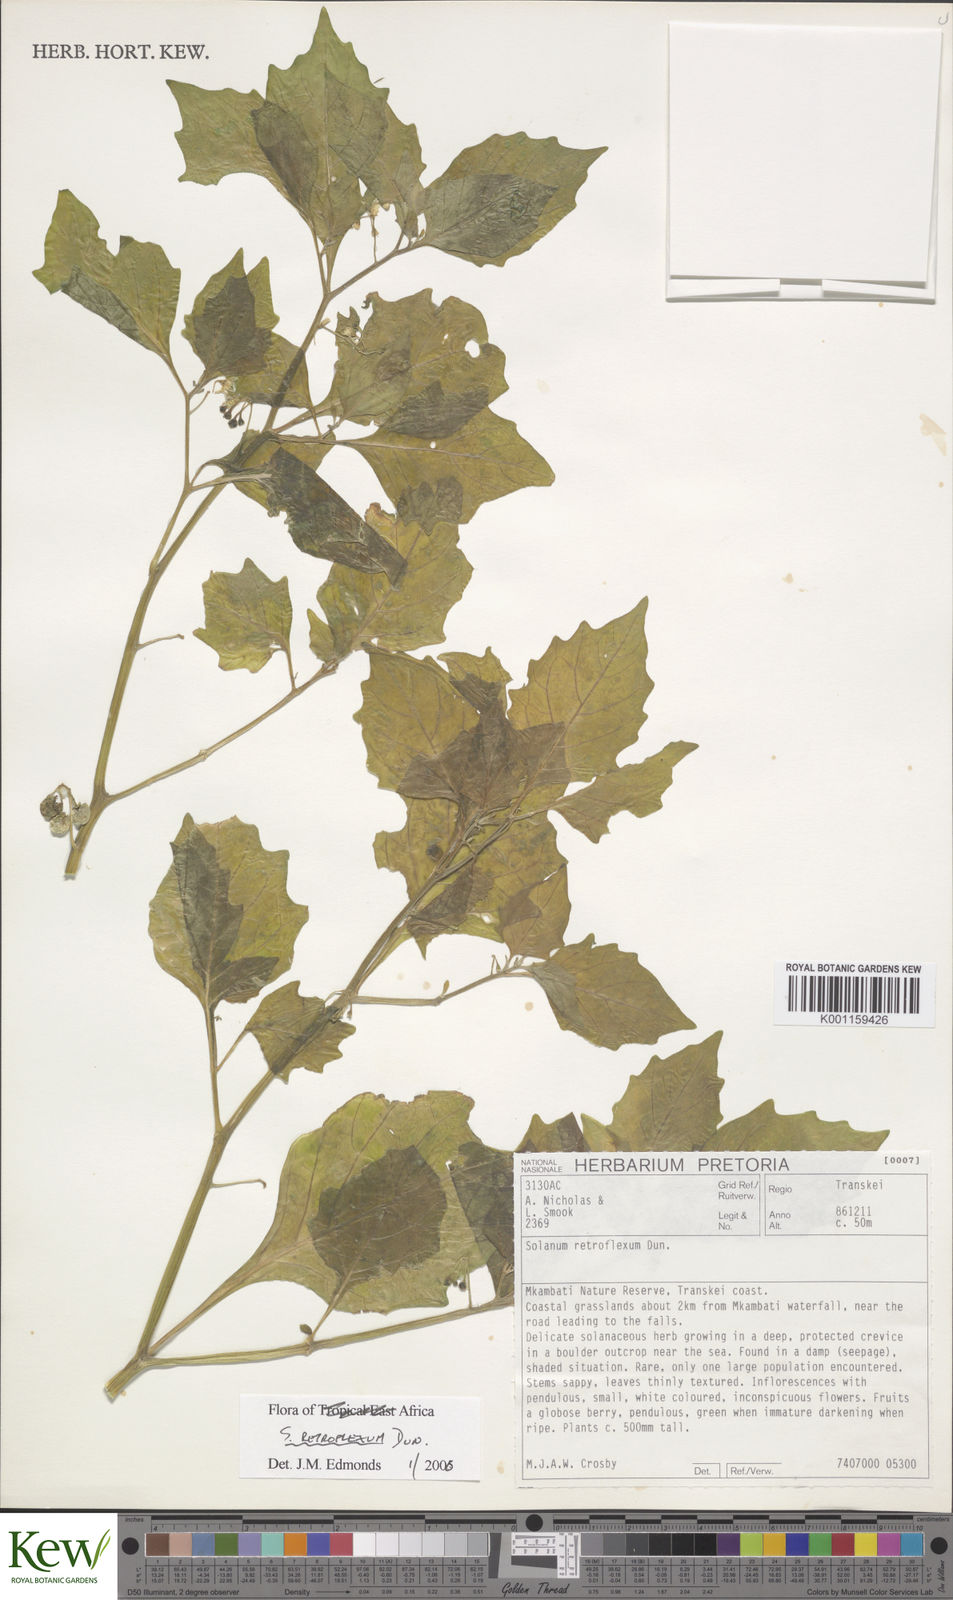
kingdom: Plantae
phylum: Tracheophyta
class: Magnoliopsida
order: Solanales
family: Solanaceae
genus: Solanum
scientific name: Solanum retroflexum
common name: Wonderberry
